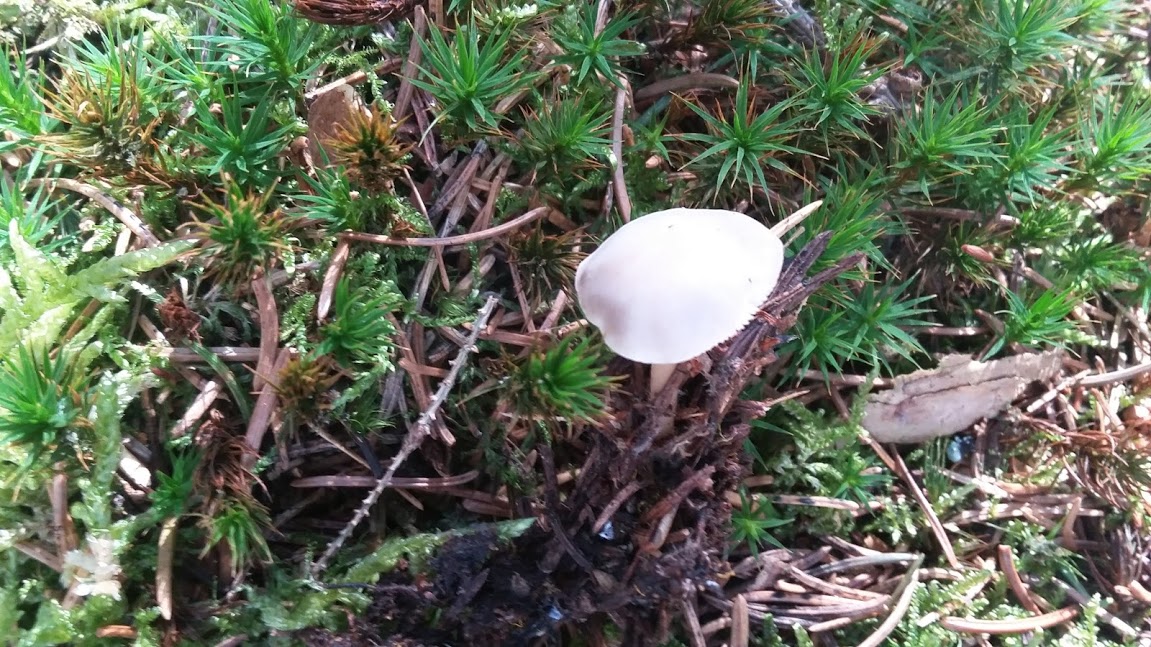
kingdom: Fungi
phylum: Basidiomycota
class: Agaricomycetes
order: Agaricales
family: Physalacriaceae
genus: Strobilurus
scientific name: Strobilurus
